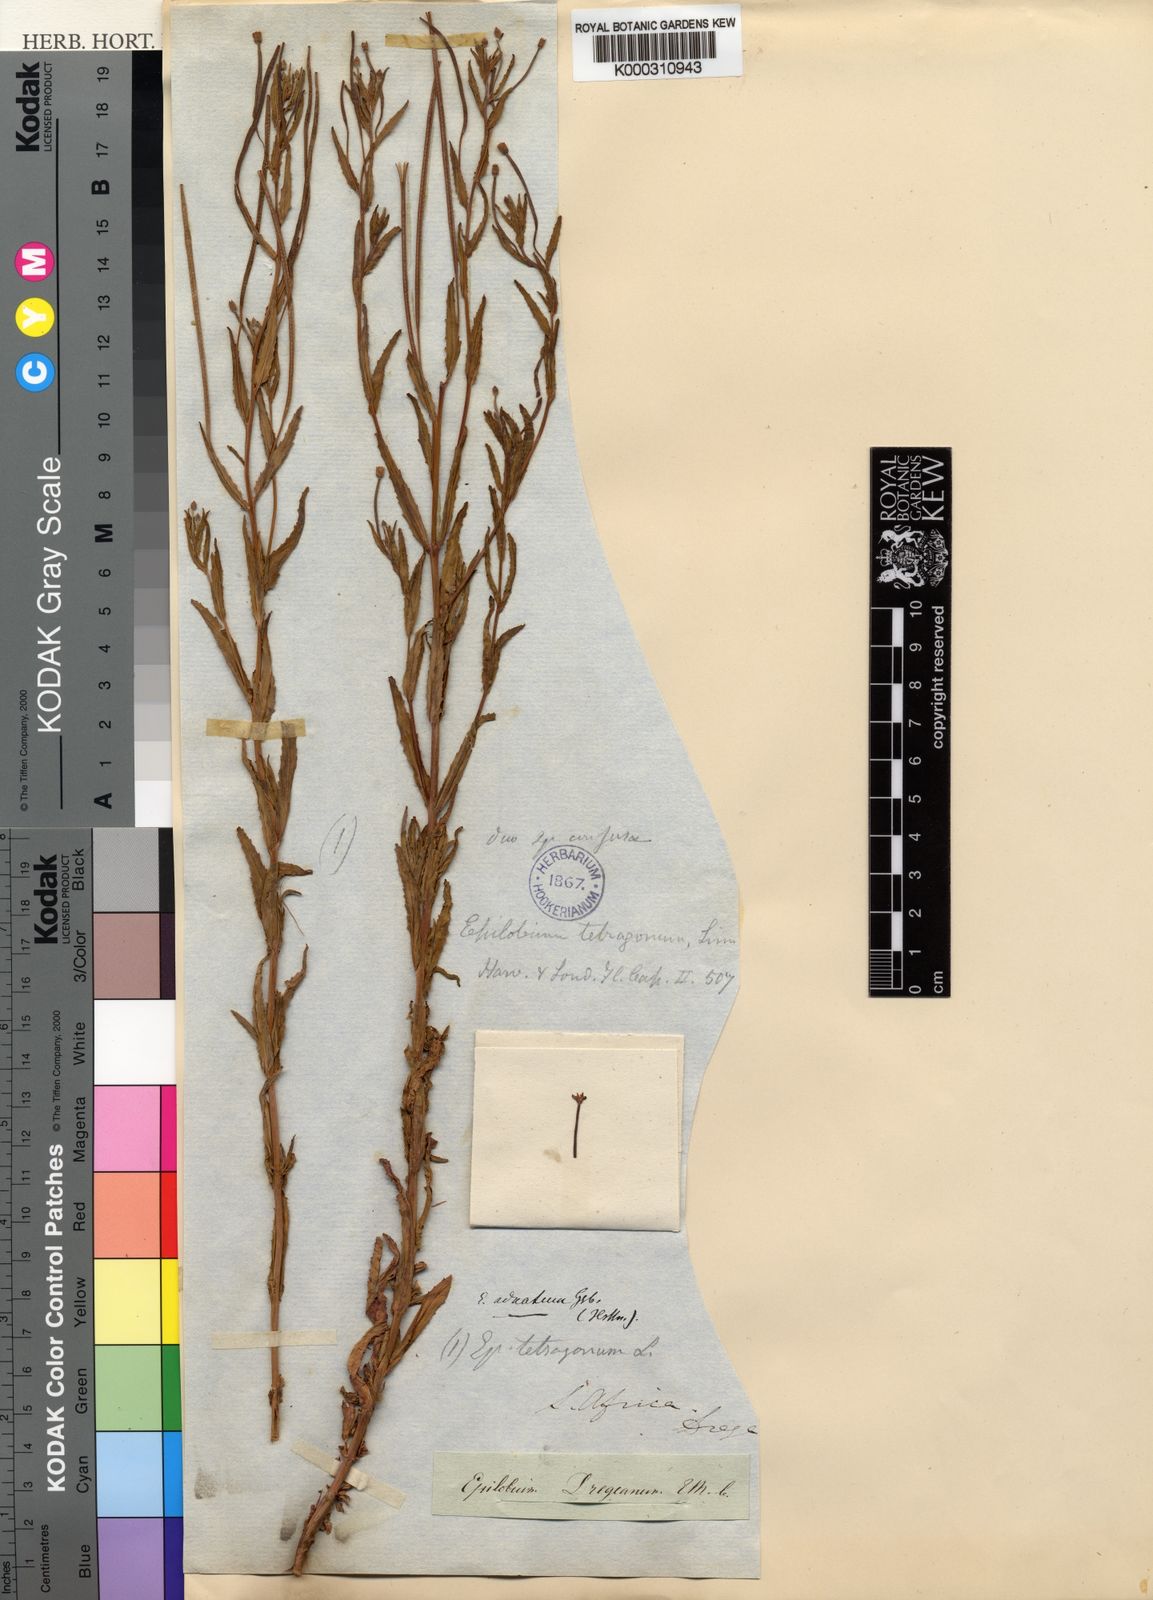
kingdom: Plantae
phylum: Tracheophyta
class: Magnoliopsida
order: Myrtales
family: Onagraceae
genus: Epilobium
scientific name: Epilobium tetragonum
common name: Square-stemmed willowherb
